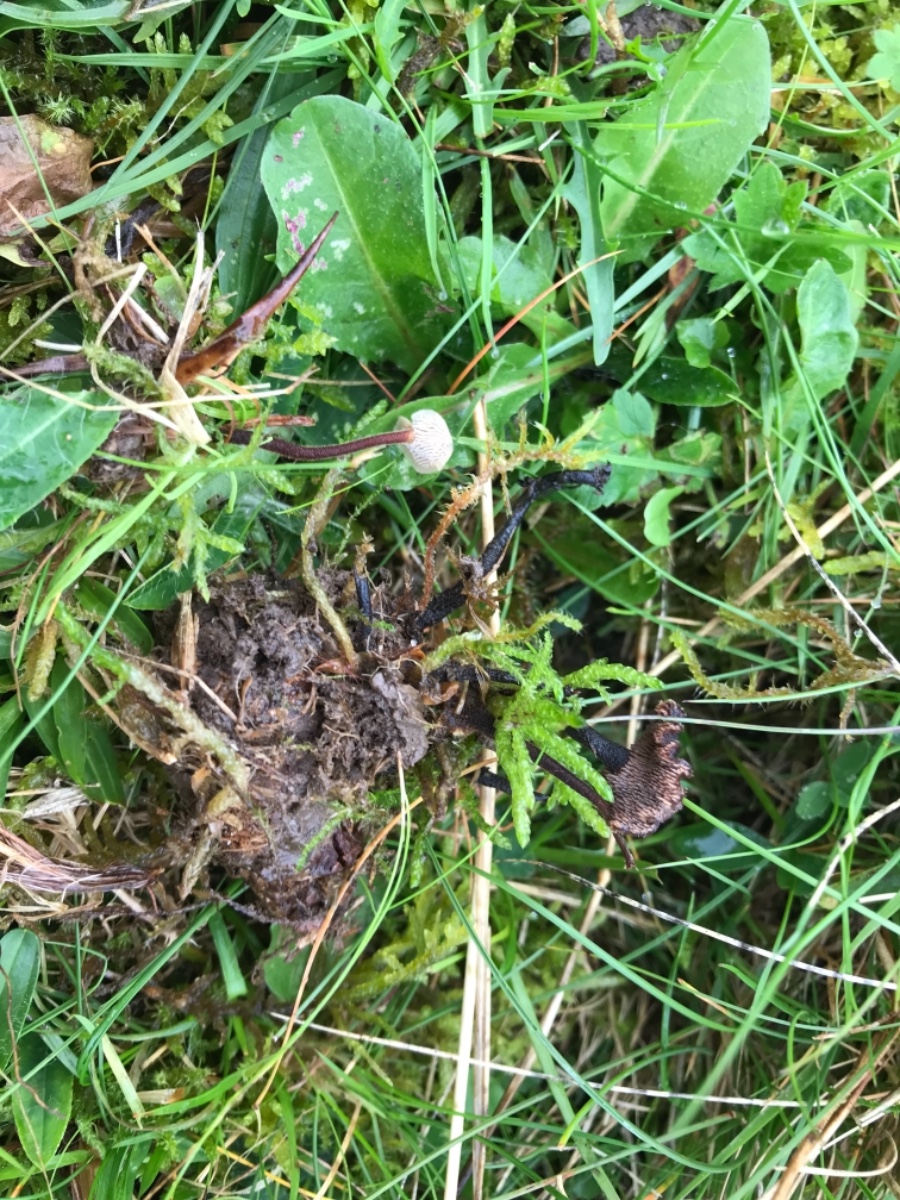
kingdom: Fungi
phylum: Basidiomycota
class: Agaricomycetes
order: Russulales
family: Auriscalpiaceae
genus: Auriscalpium
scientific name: Auriscalpium vulgare
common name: koglepigsvamp
